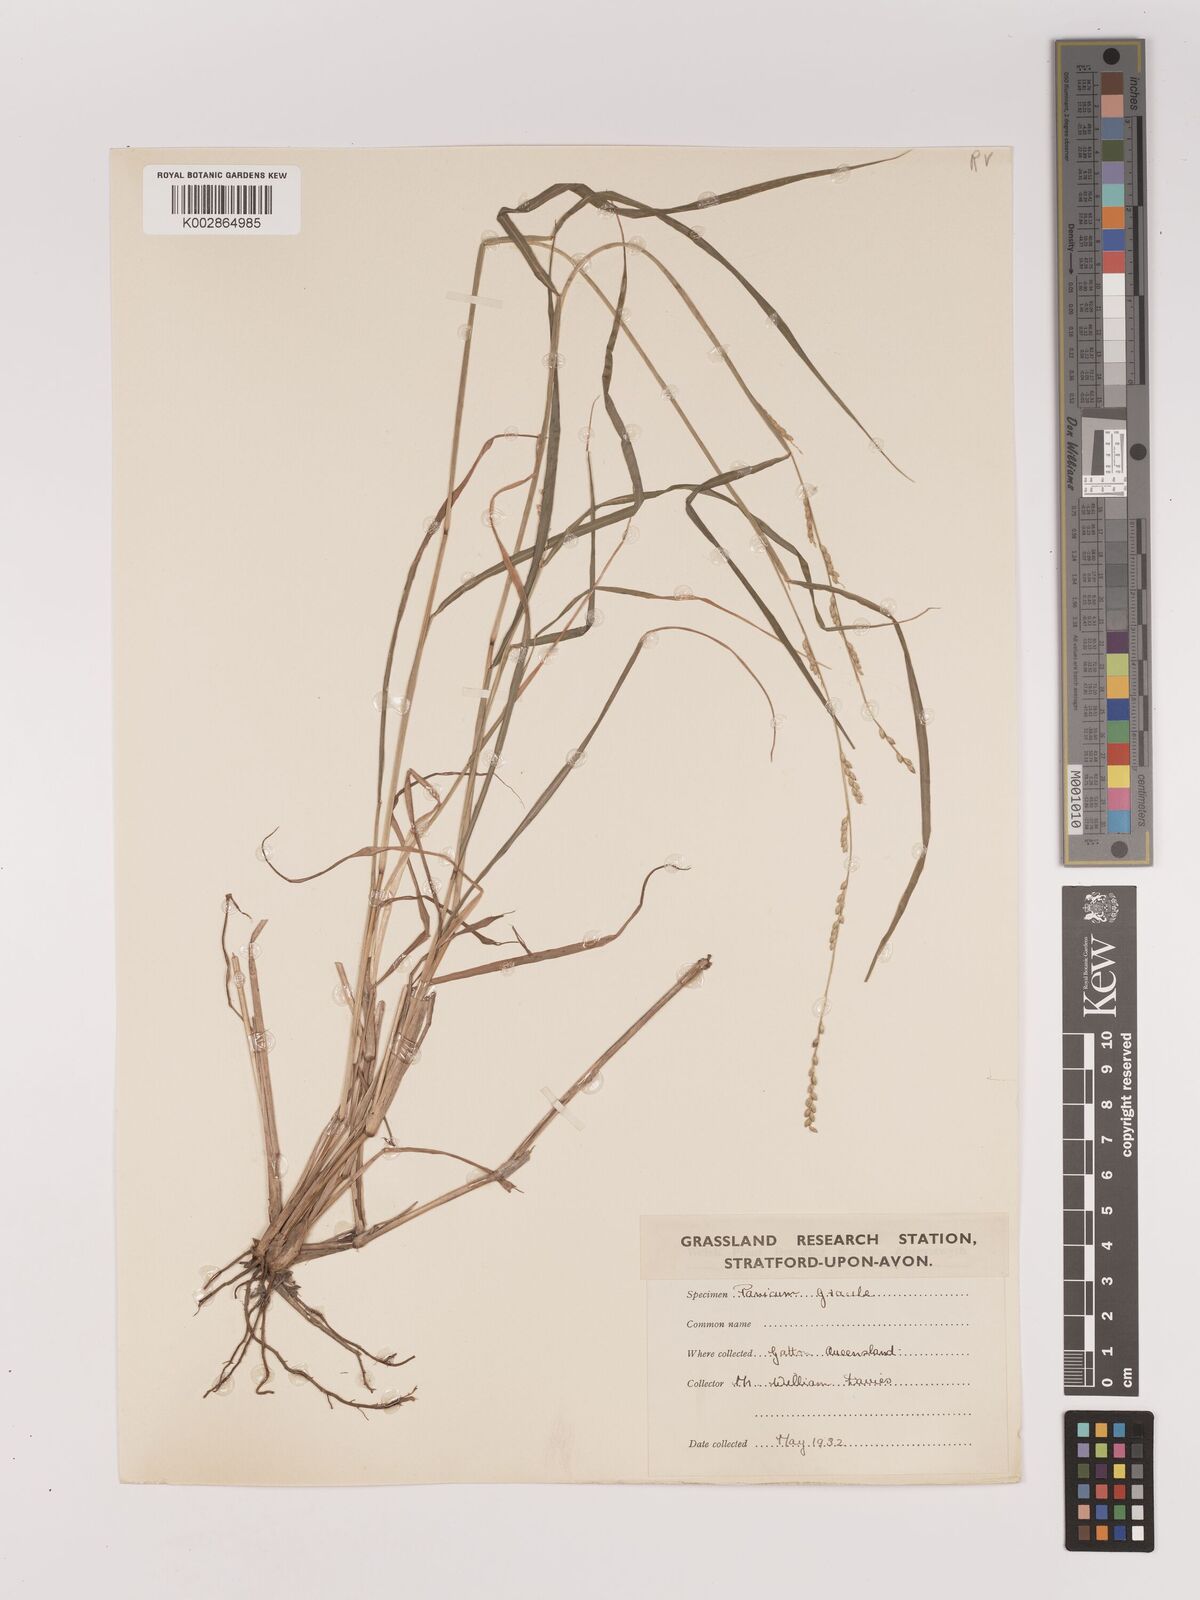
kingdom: Plantae
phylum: Tracheophyta
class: Liliopsida
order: Poales
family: Poaceae
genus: Setaria
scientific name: Setaria
